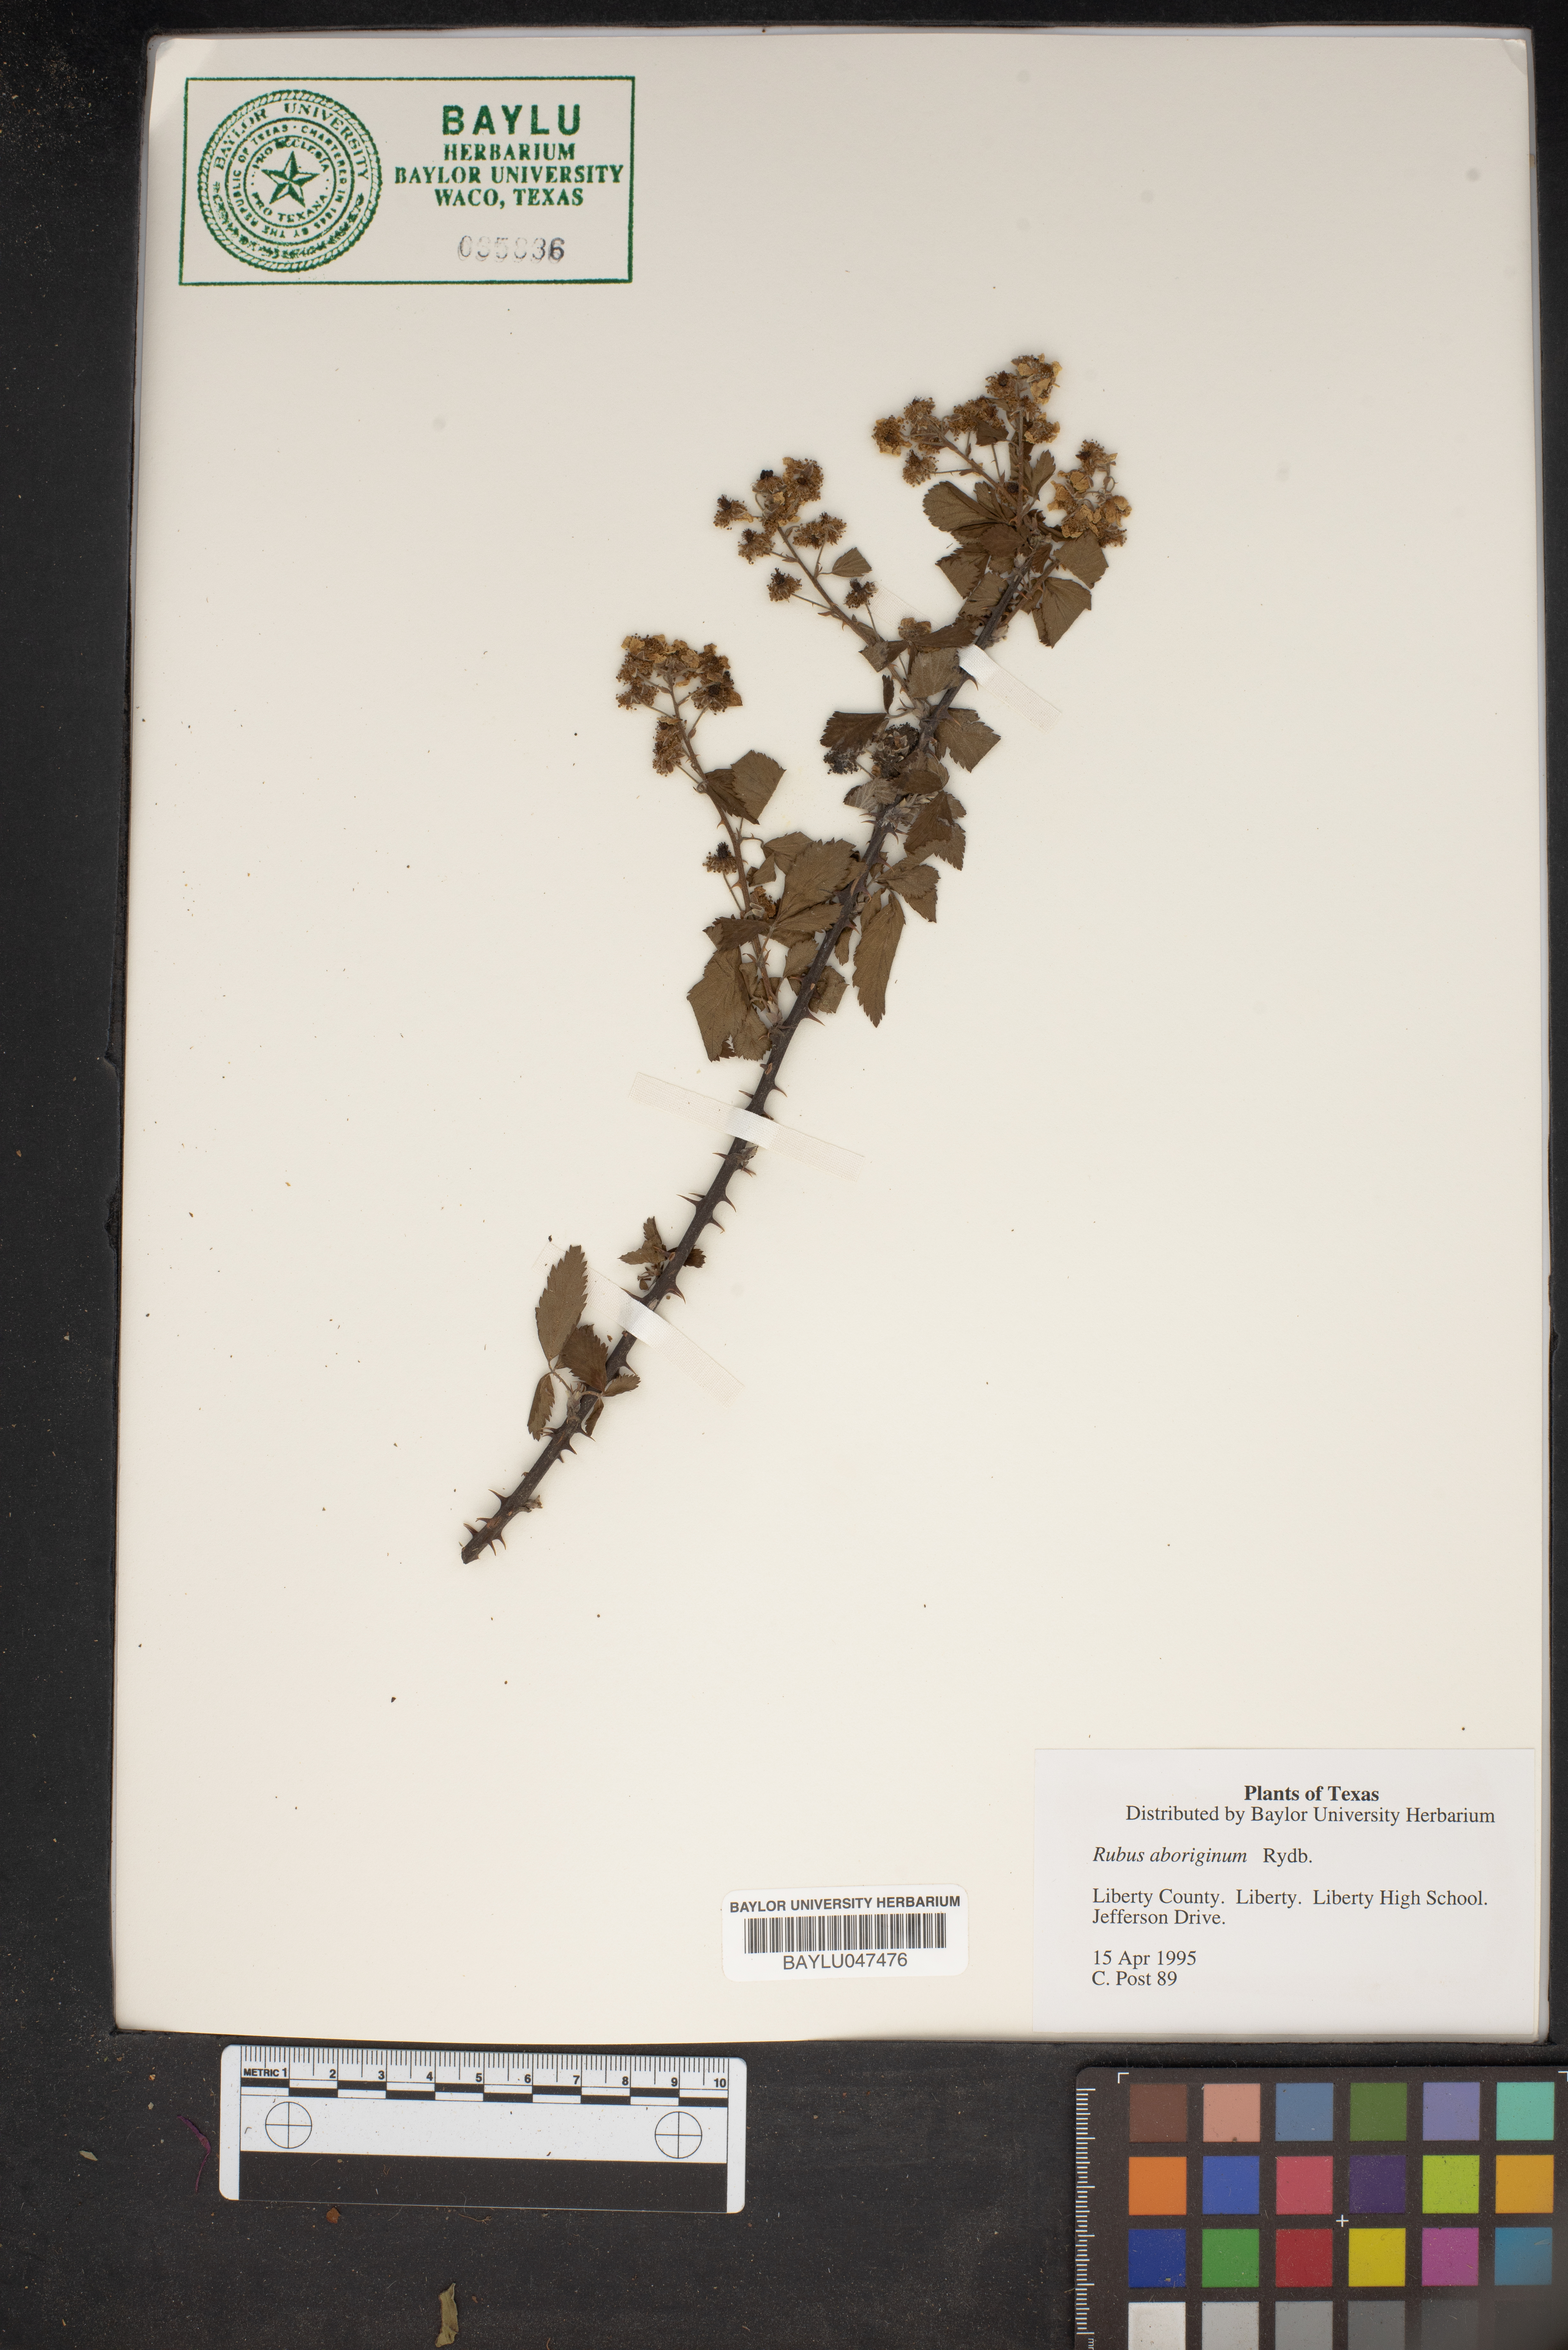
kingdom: Plantae
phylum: Tracheophyta
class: Magnoliopsida
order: Rosales
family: Rosaceae
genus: Rubus
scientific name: Rubus aboriginum
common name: Mayes dewberry
